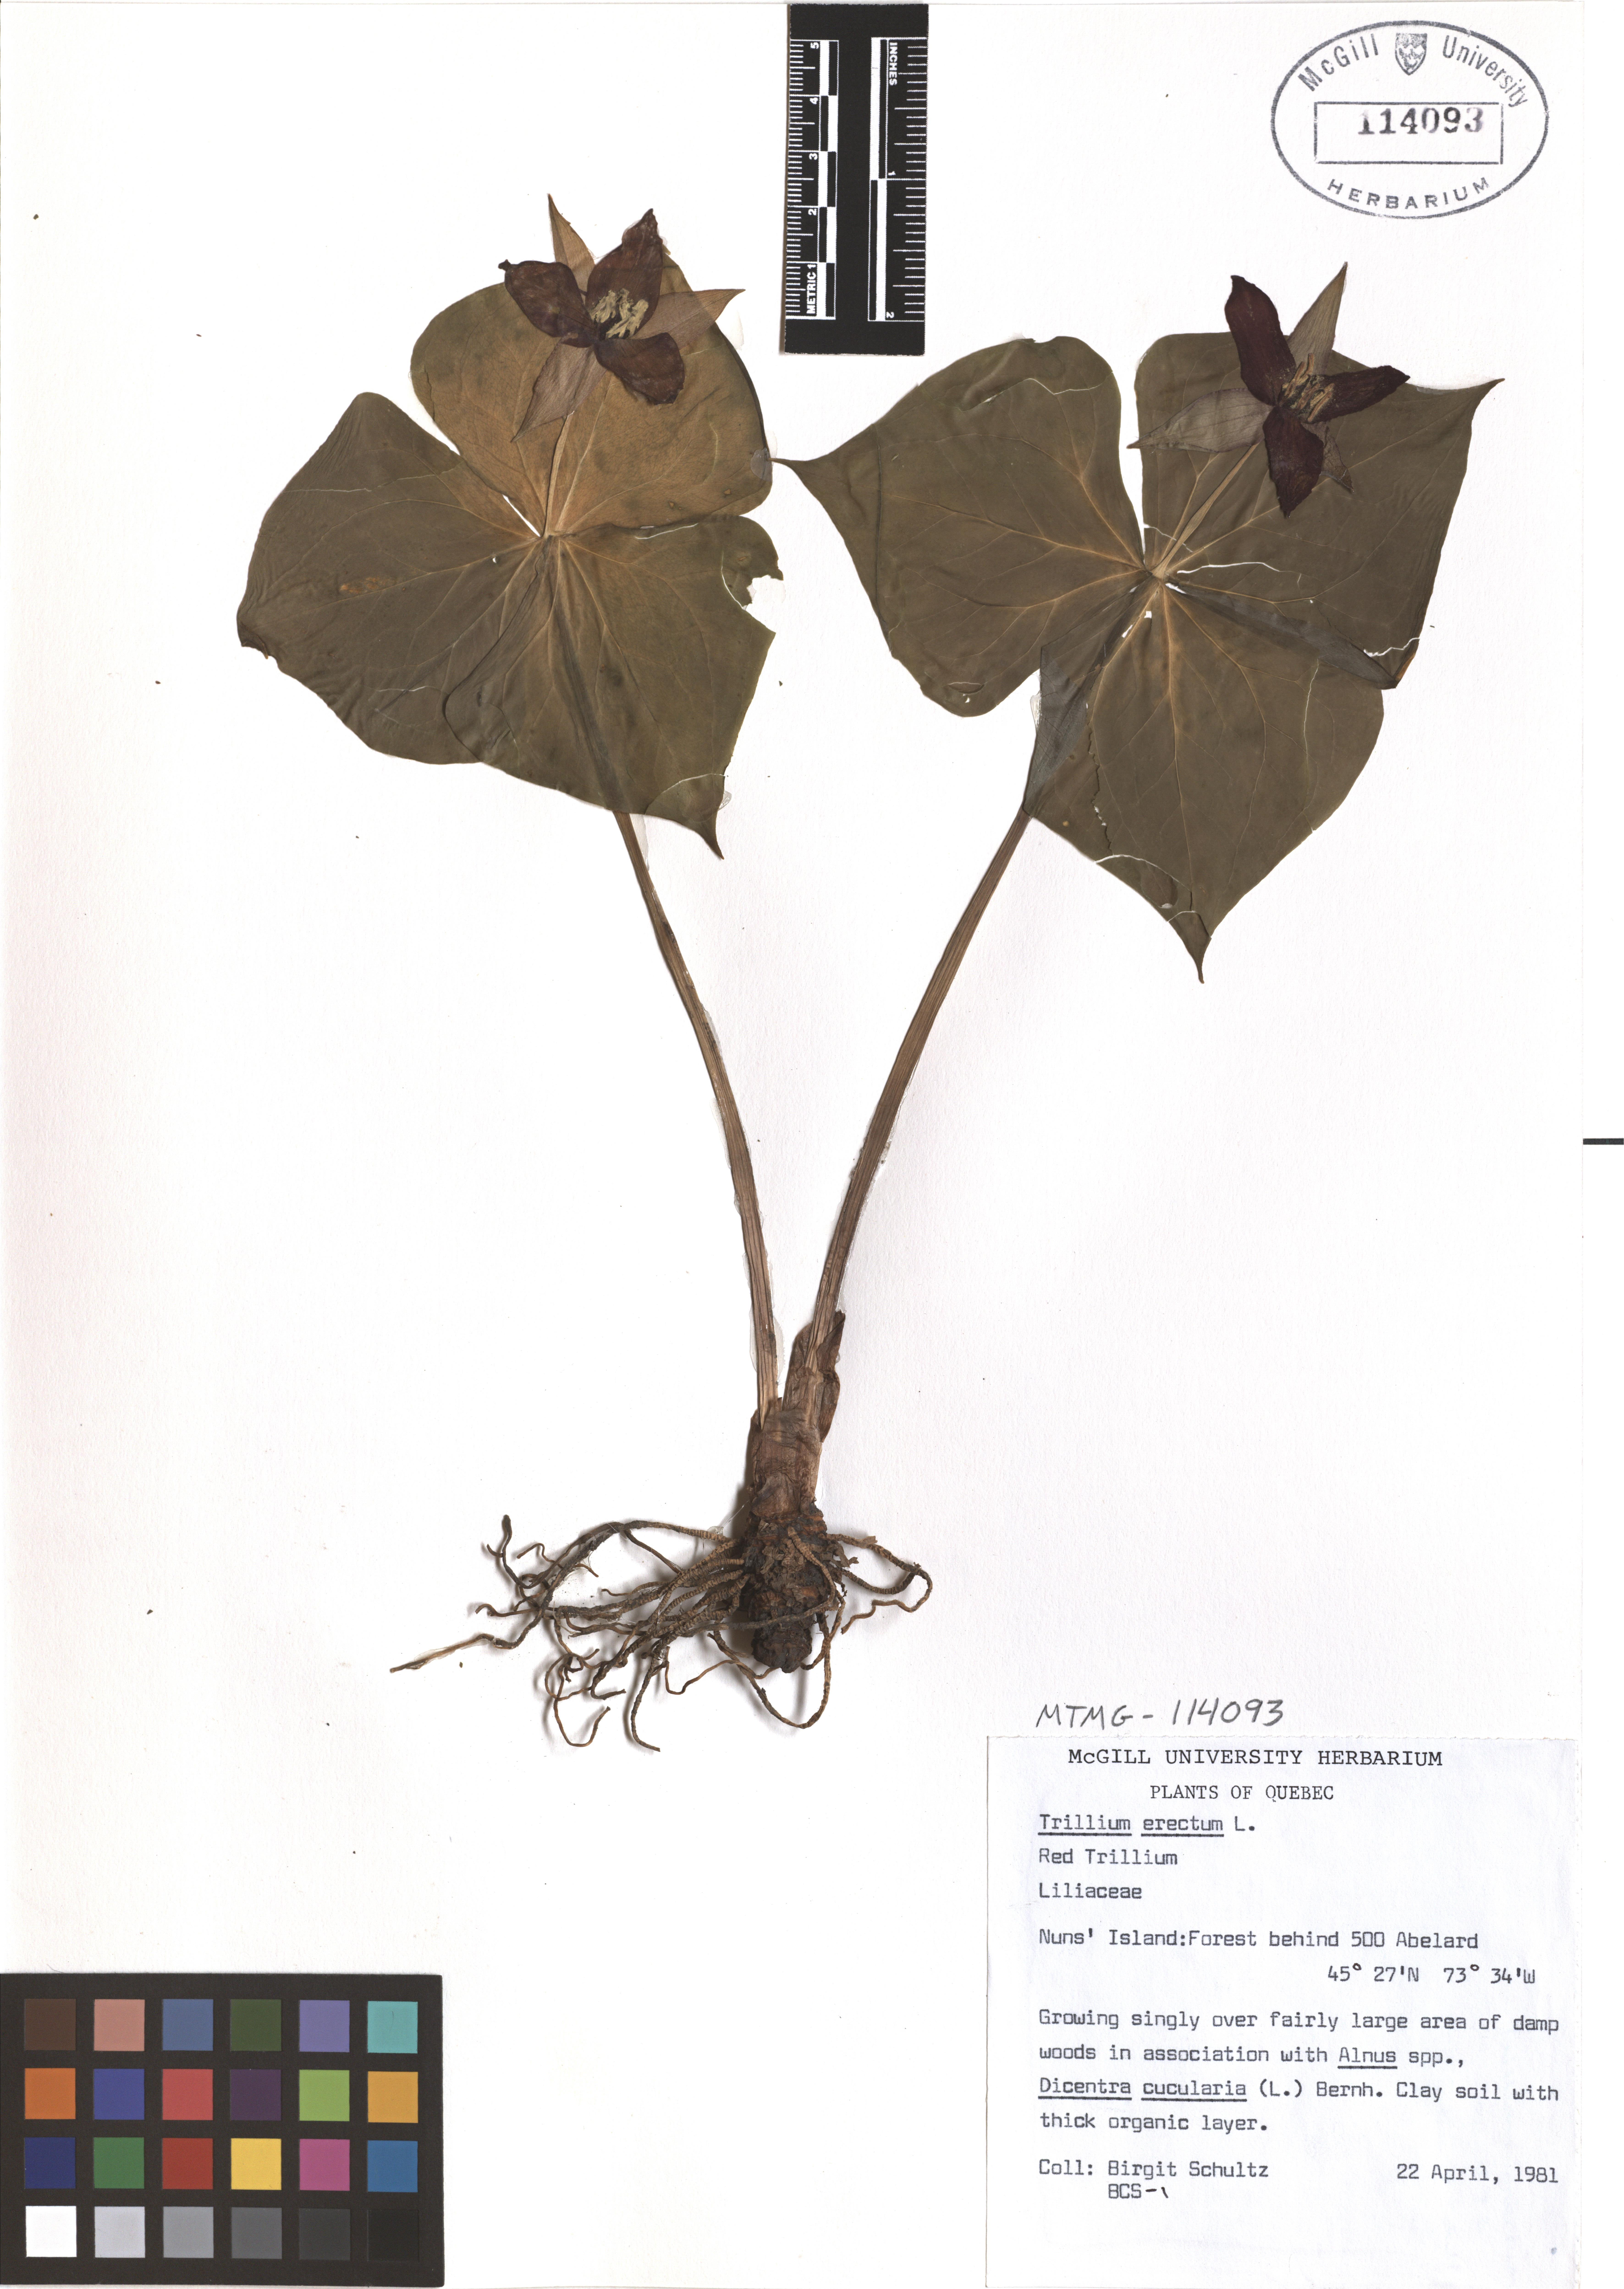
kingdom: Plantae
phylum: Tracheophyta
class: Liliopsida
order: Liliales
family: Melanthiaceae
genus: Trillium
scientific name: Trillium erectum
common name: Purple trillium
